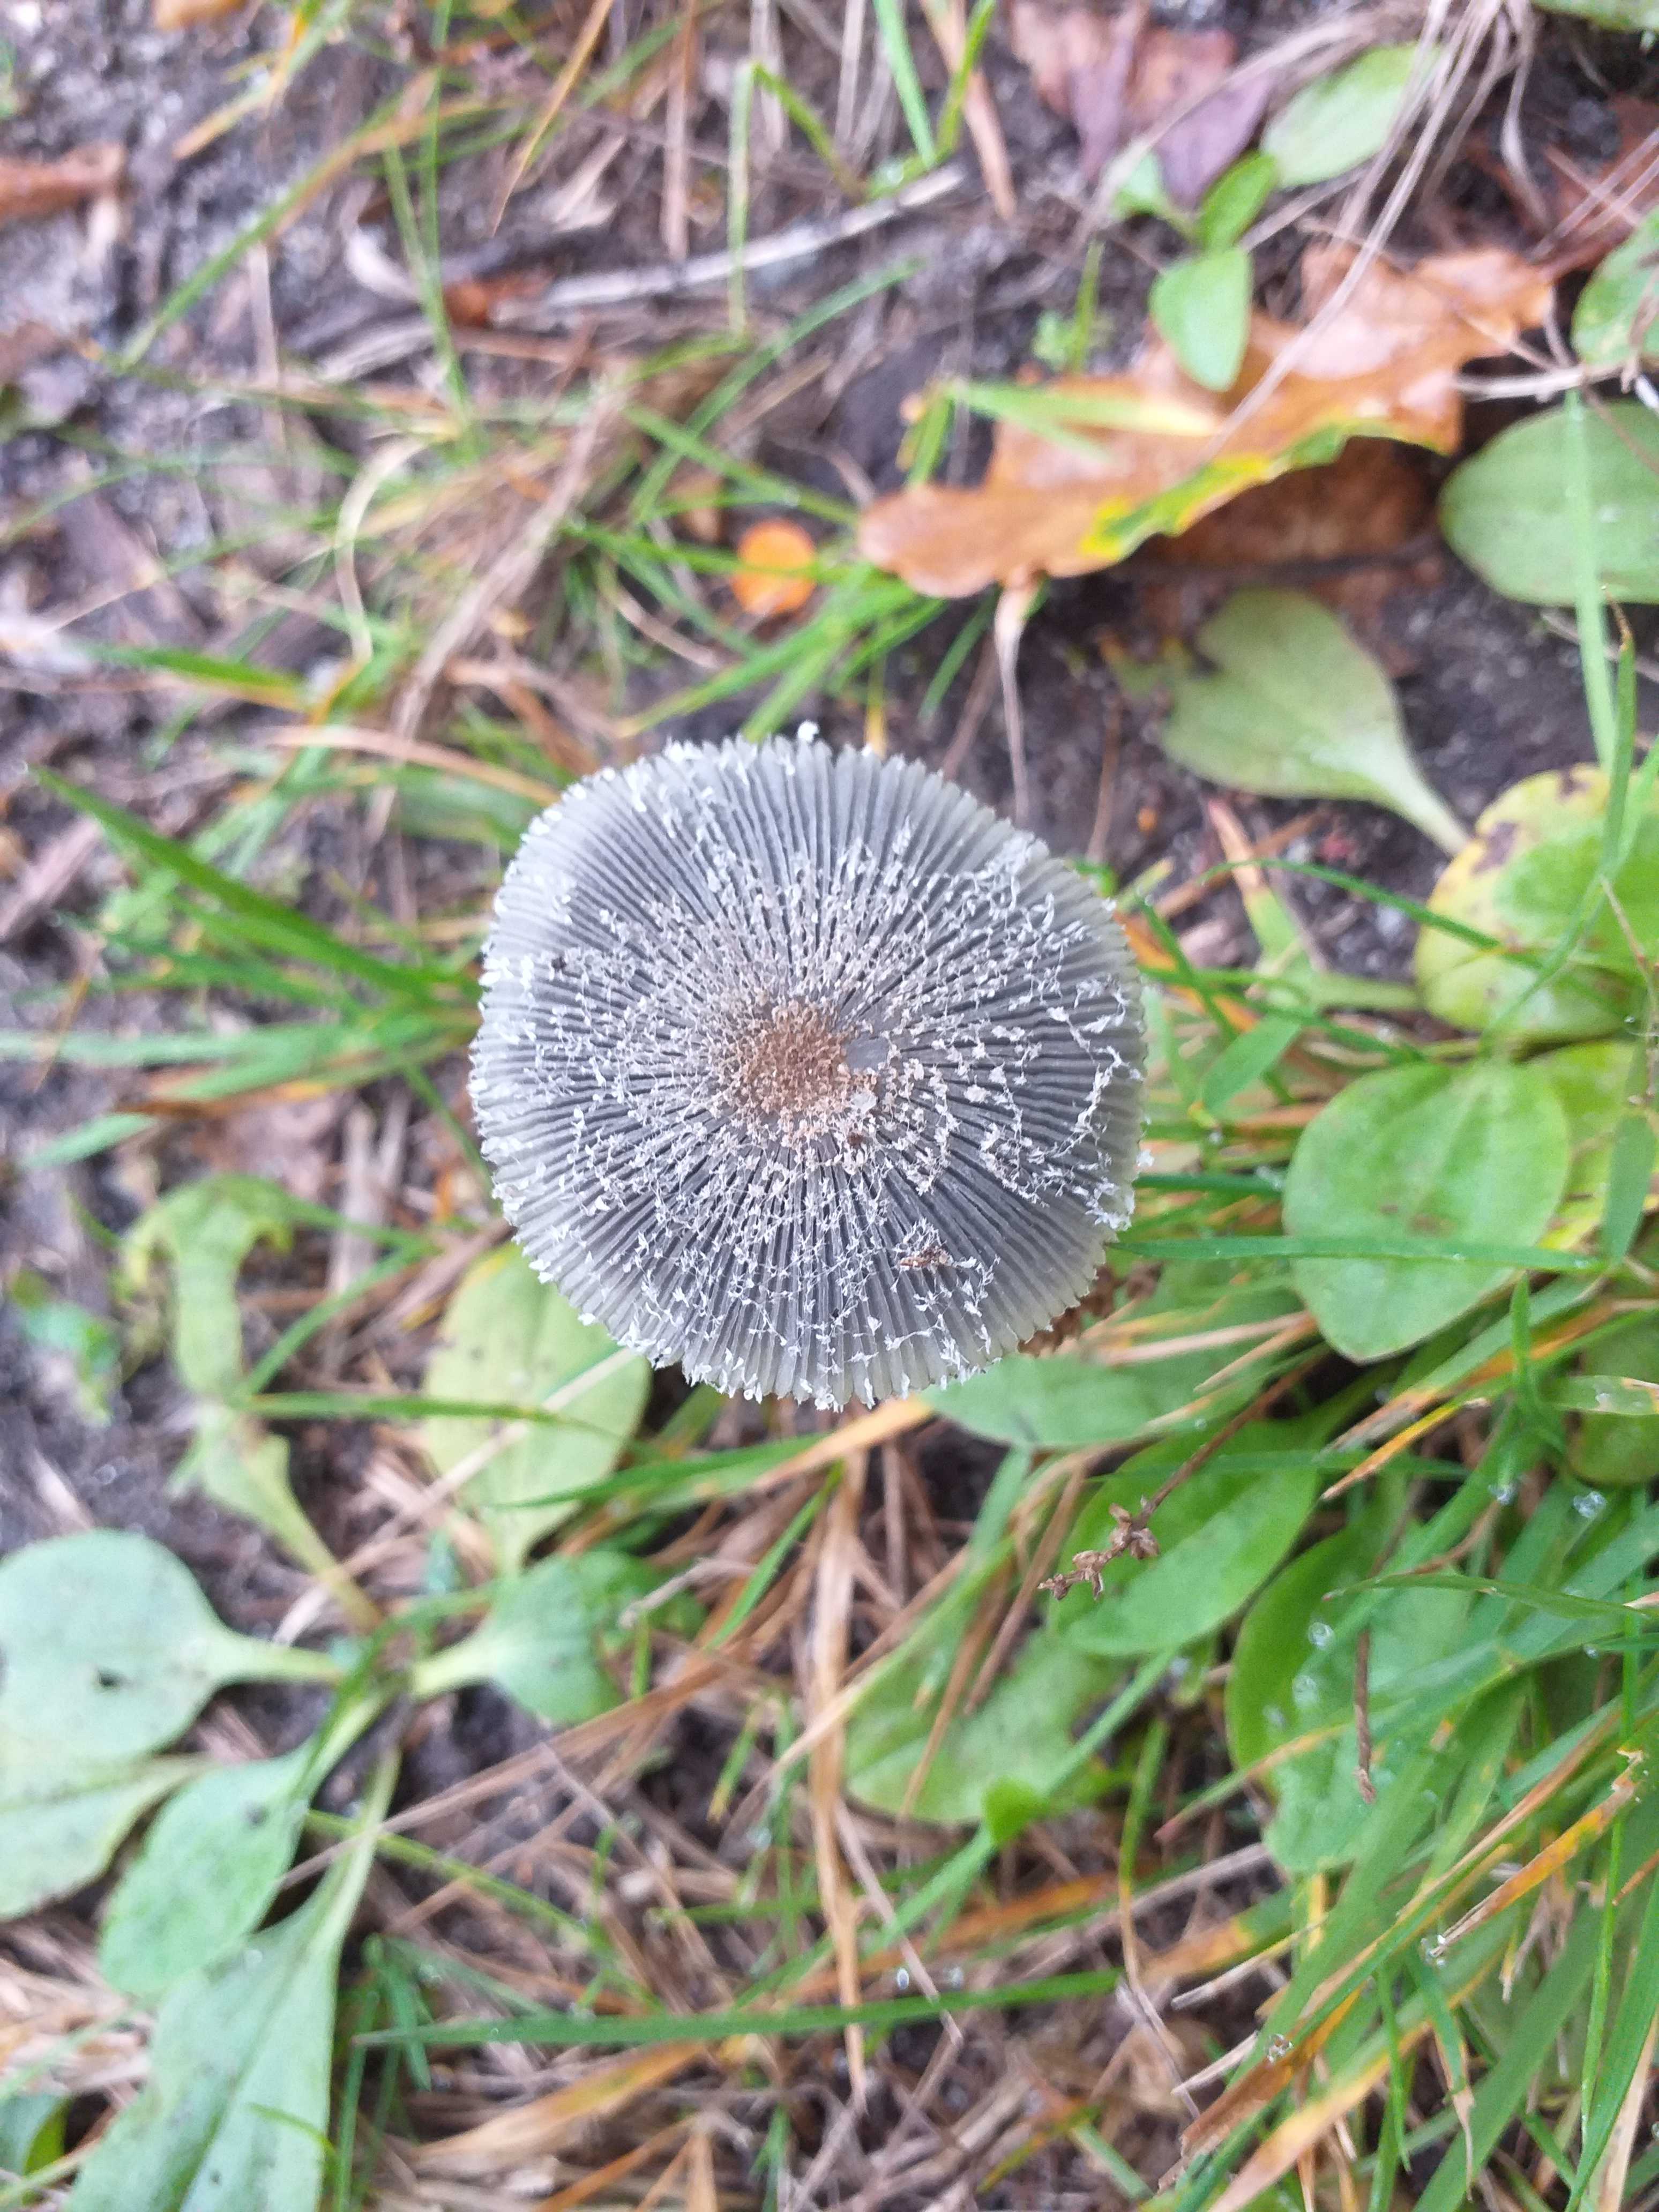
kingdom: Fungi
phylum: Basidiomycota
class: Agaricomycetes
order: Agaricales
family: Psathyrellaceae
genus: Coprinopsis
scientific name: Coprinopsis lagopus
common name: dunstokket blækhat
